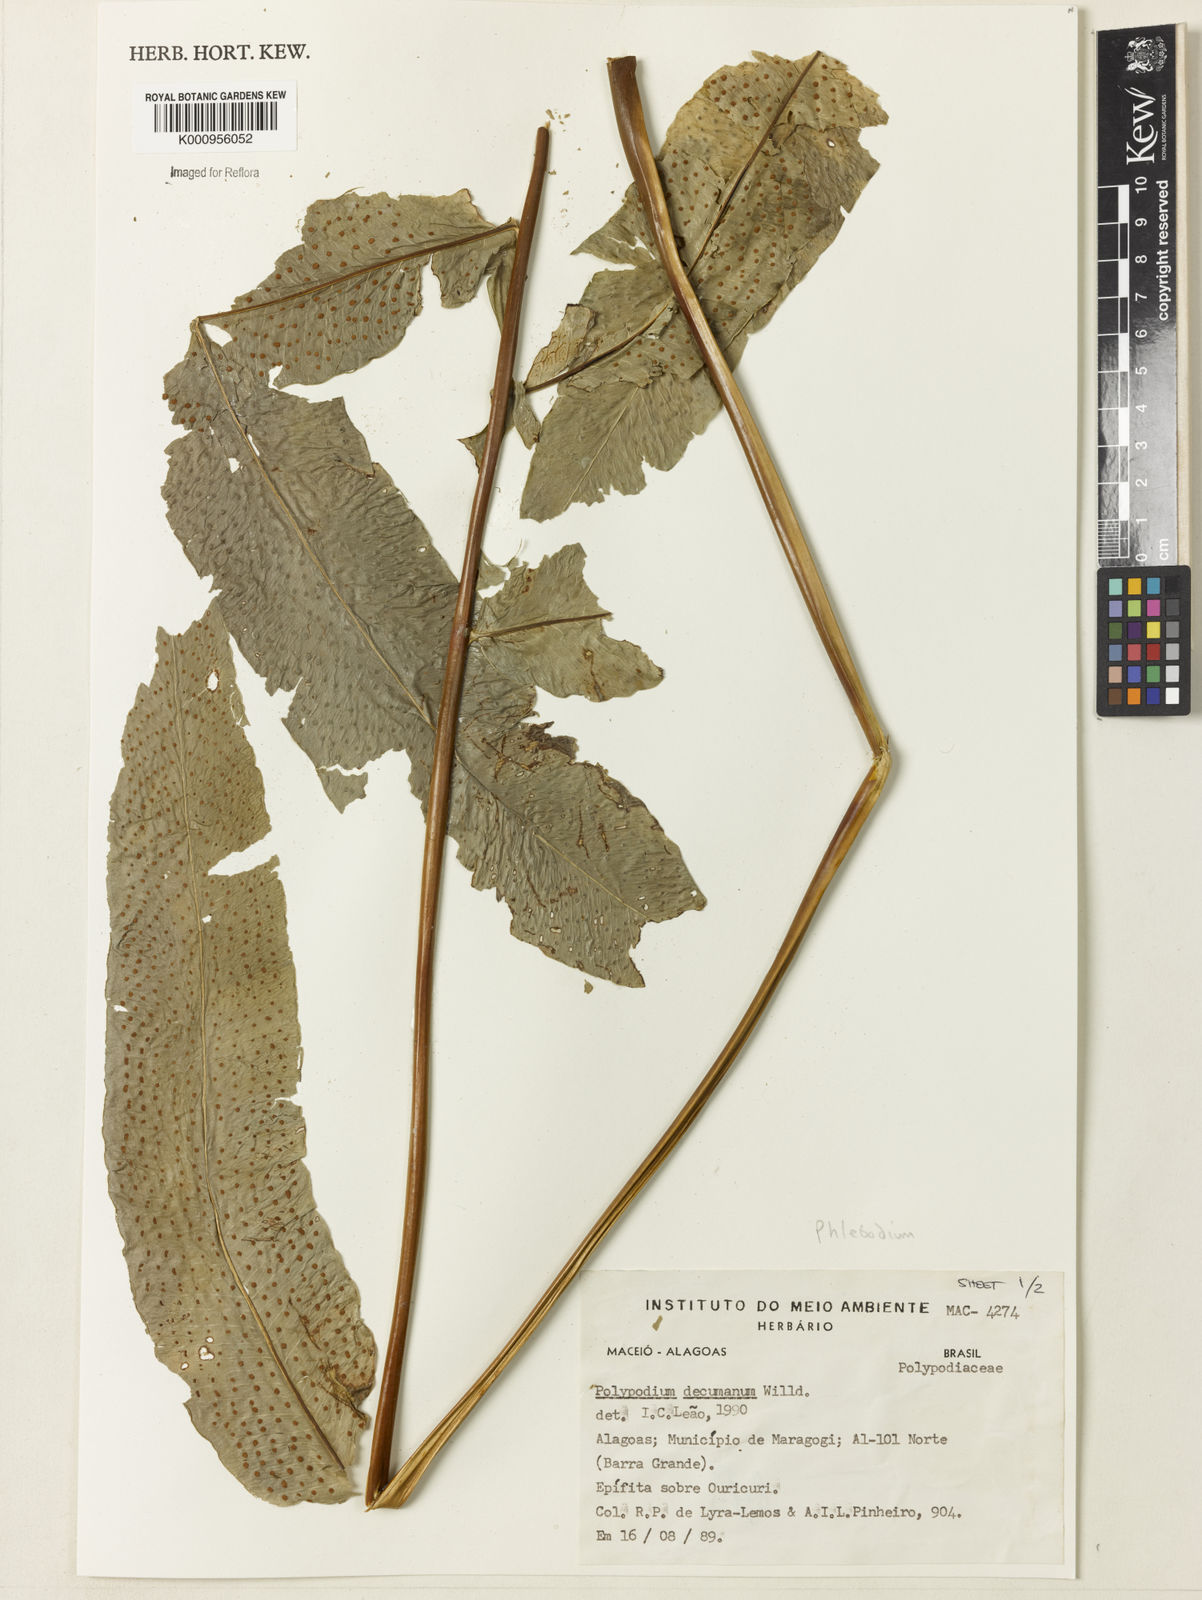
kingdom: Plantae
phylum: Tracheophyta
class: Polypodiopsida
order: Polypodiales
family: Polypodiaceae
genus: Phlebodium
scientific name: Phlebodium decumanum
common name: Golden polypod
